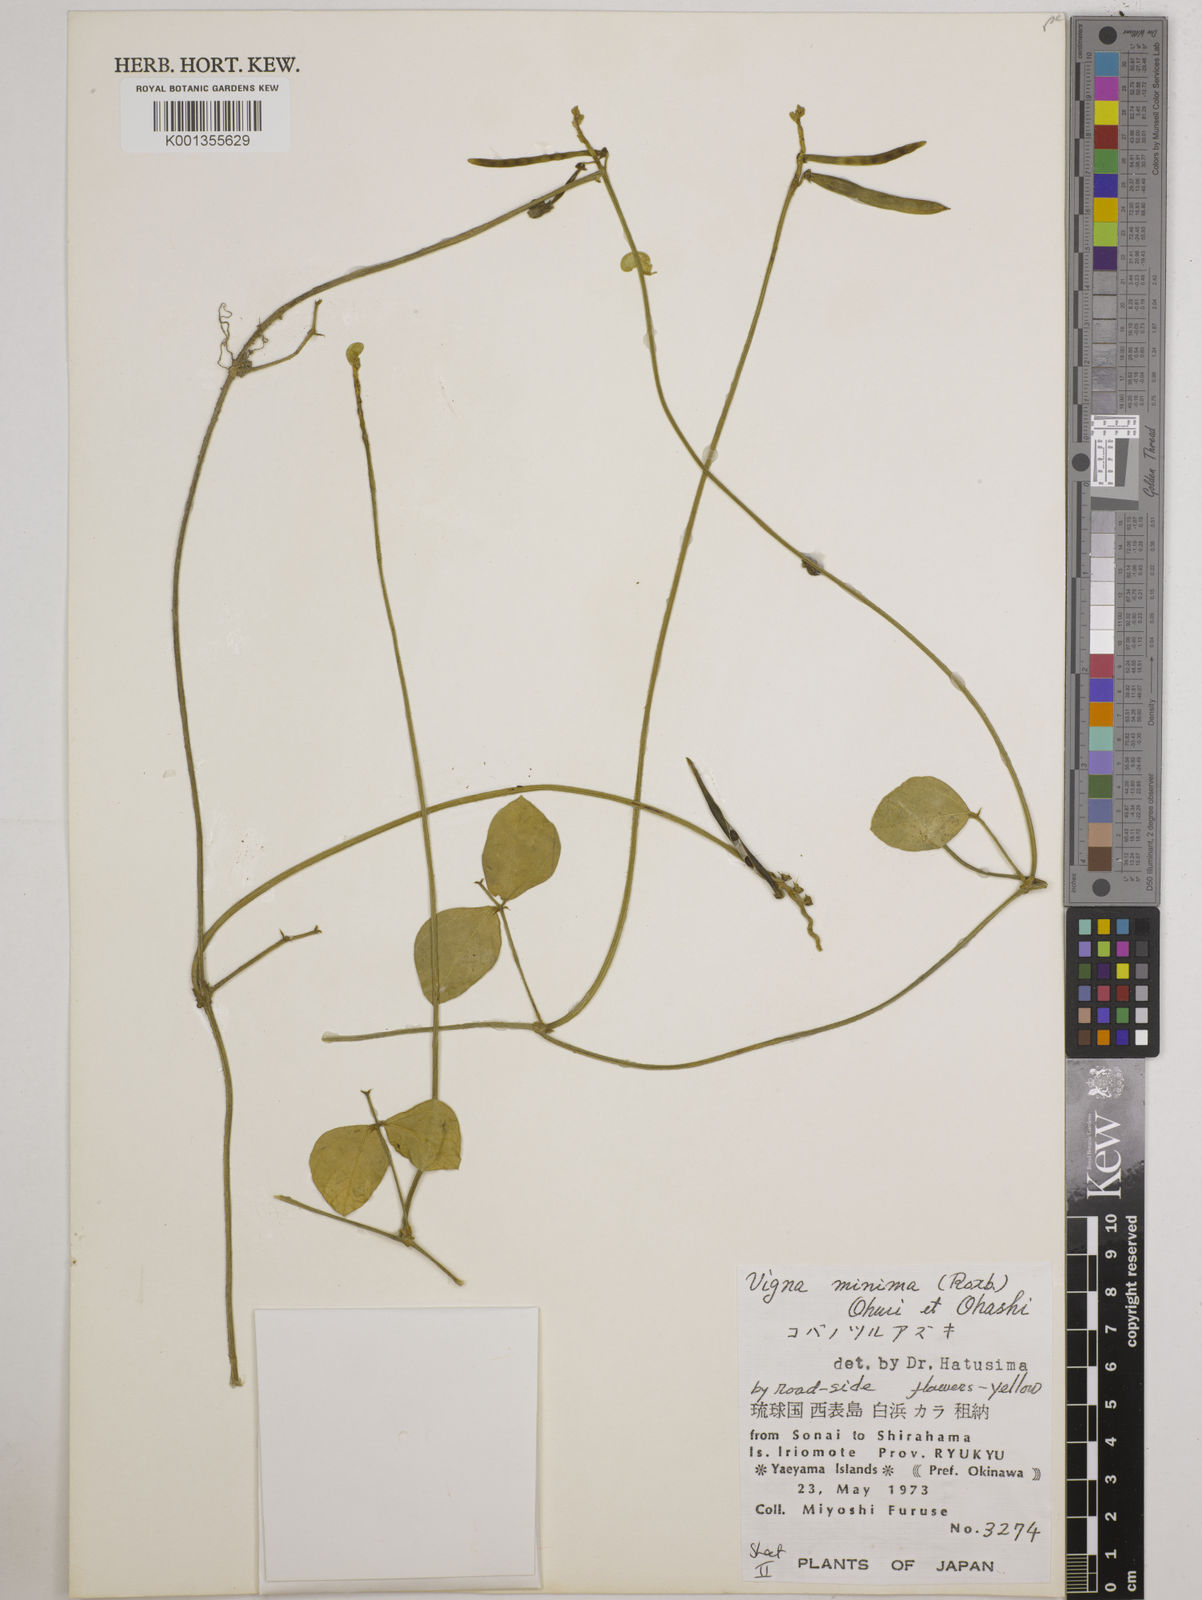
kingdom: Plantae
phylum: Tracheophyta
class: Magnoliopsida
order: Fabales
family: Fabaceae
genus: Vigna
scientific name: Vigna minima
